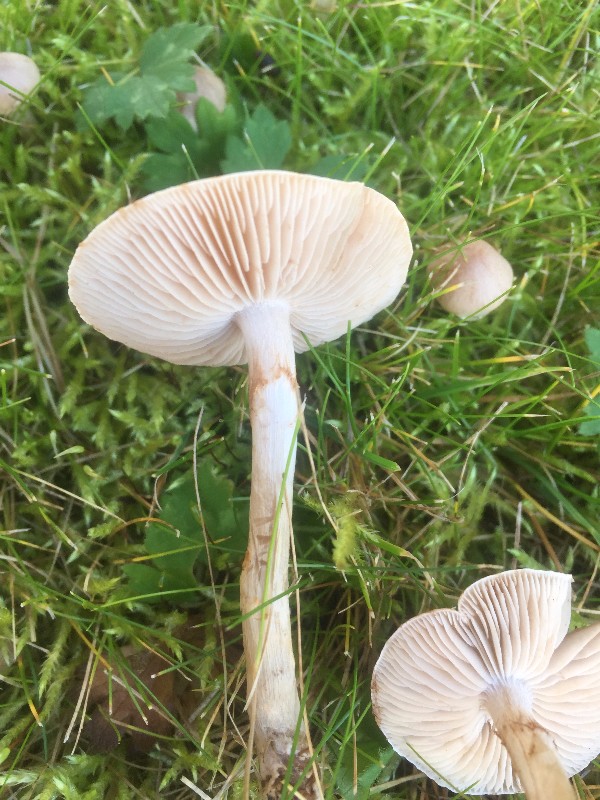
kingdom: Fungi
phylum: Basidiomycota
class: Agaricomycetes
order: Agaricales
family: Hymenogastraceae
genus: Hebeloma
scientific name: Hebeloma mesophaeum
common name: lerbrun tåreblad
